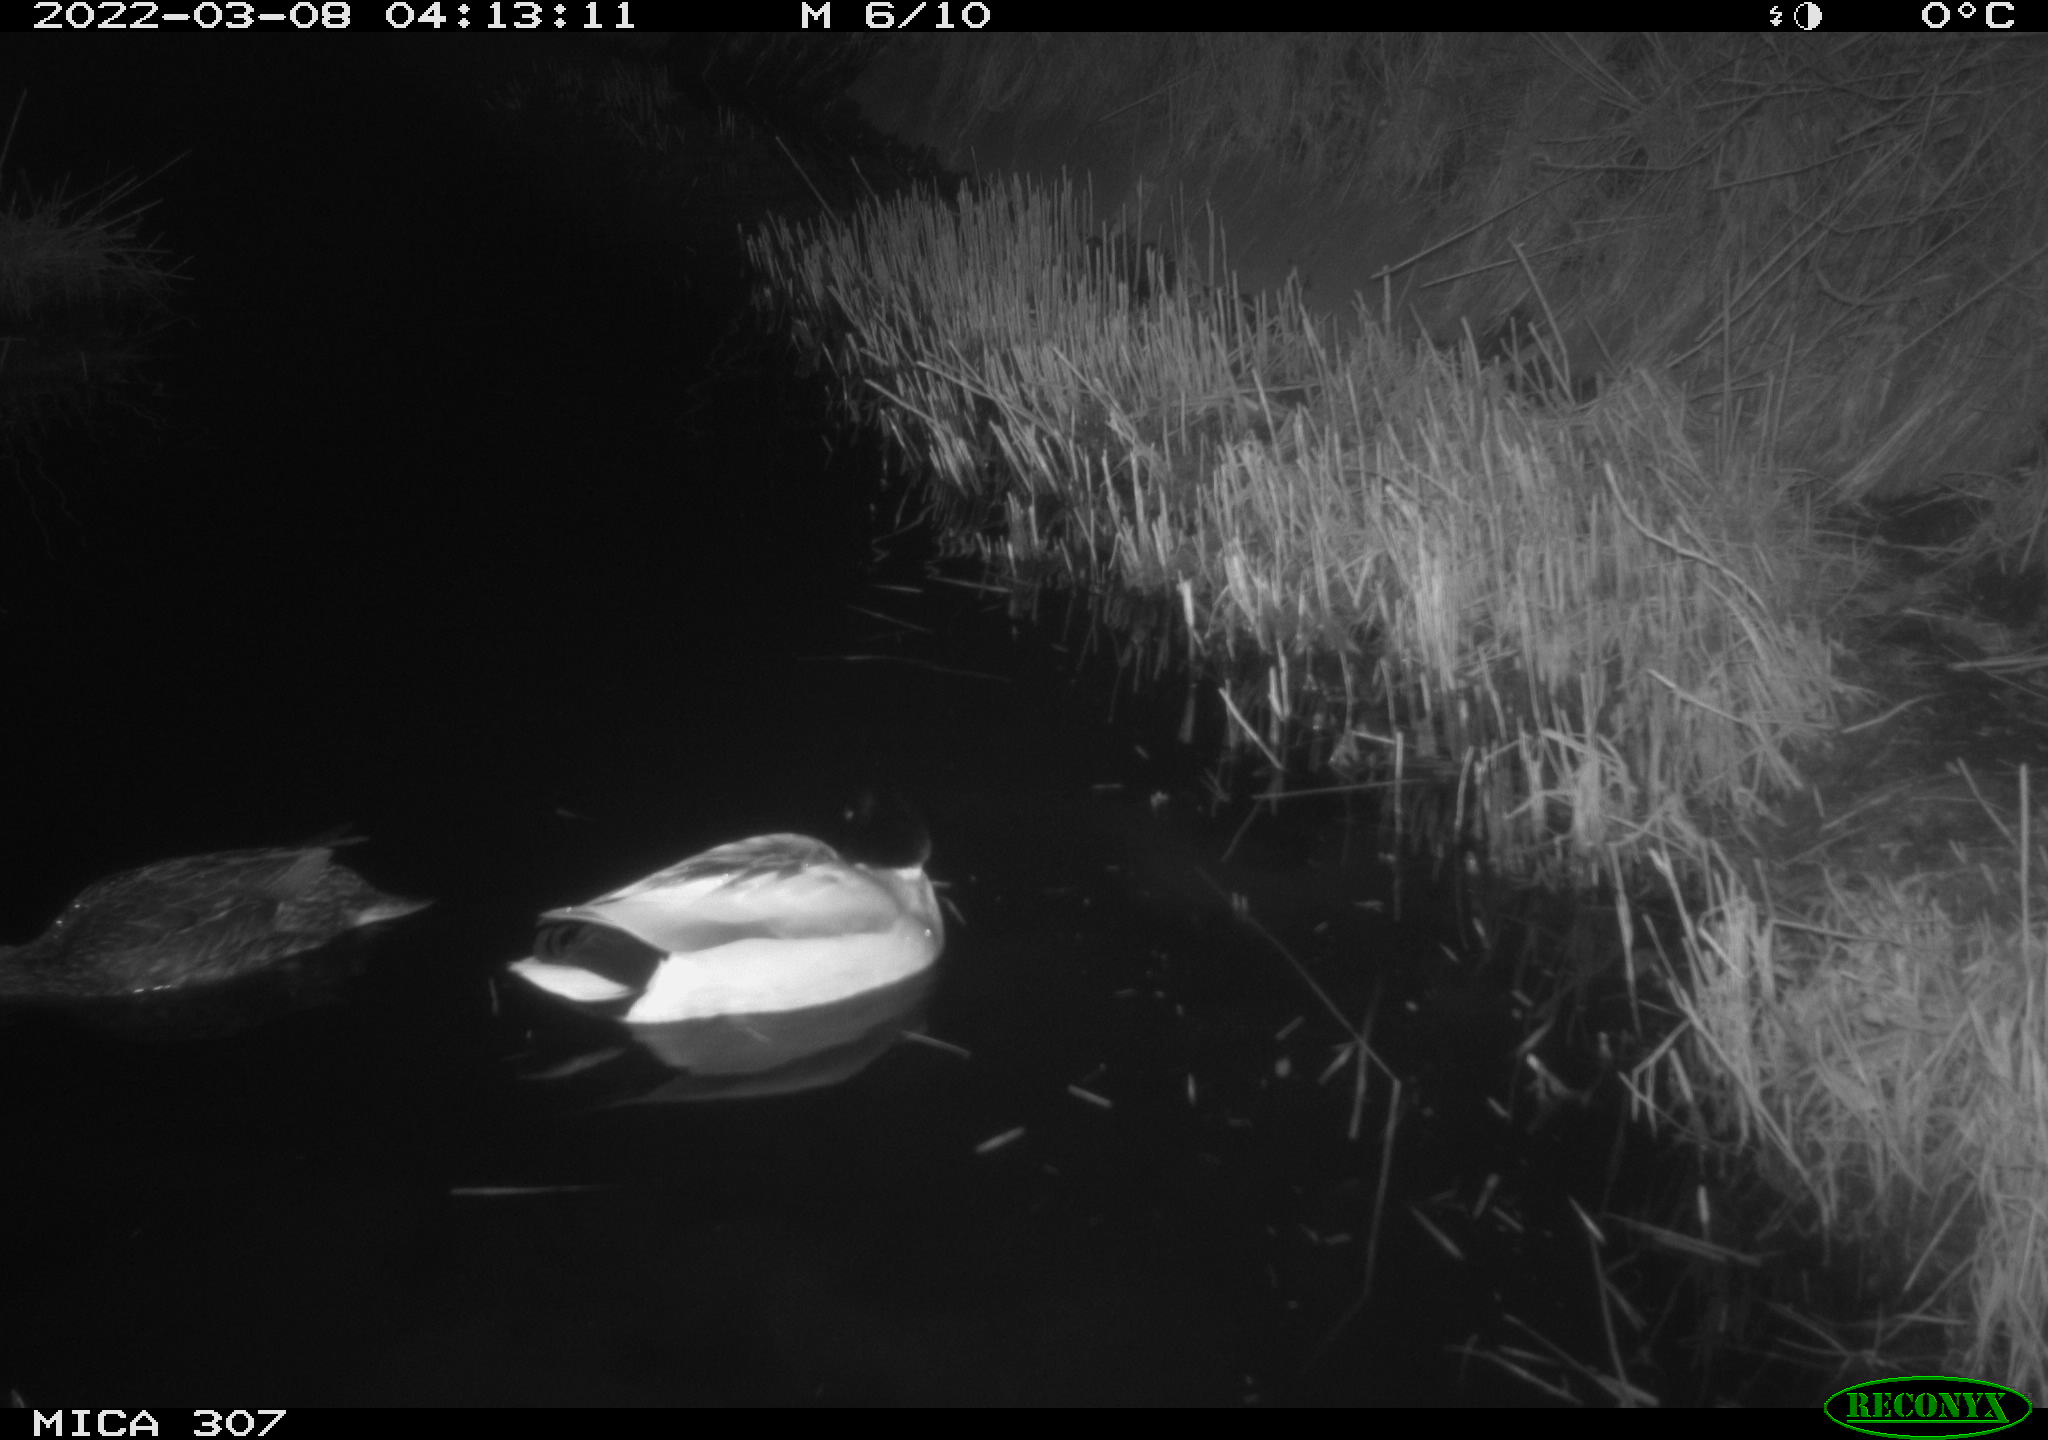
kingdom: Animalia
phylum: Chordata
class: Aves
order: Anseriformes
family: Anatidae
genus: Anas
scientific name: Anas platyrhynchos
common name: Mallard
